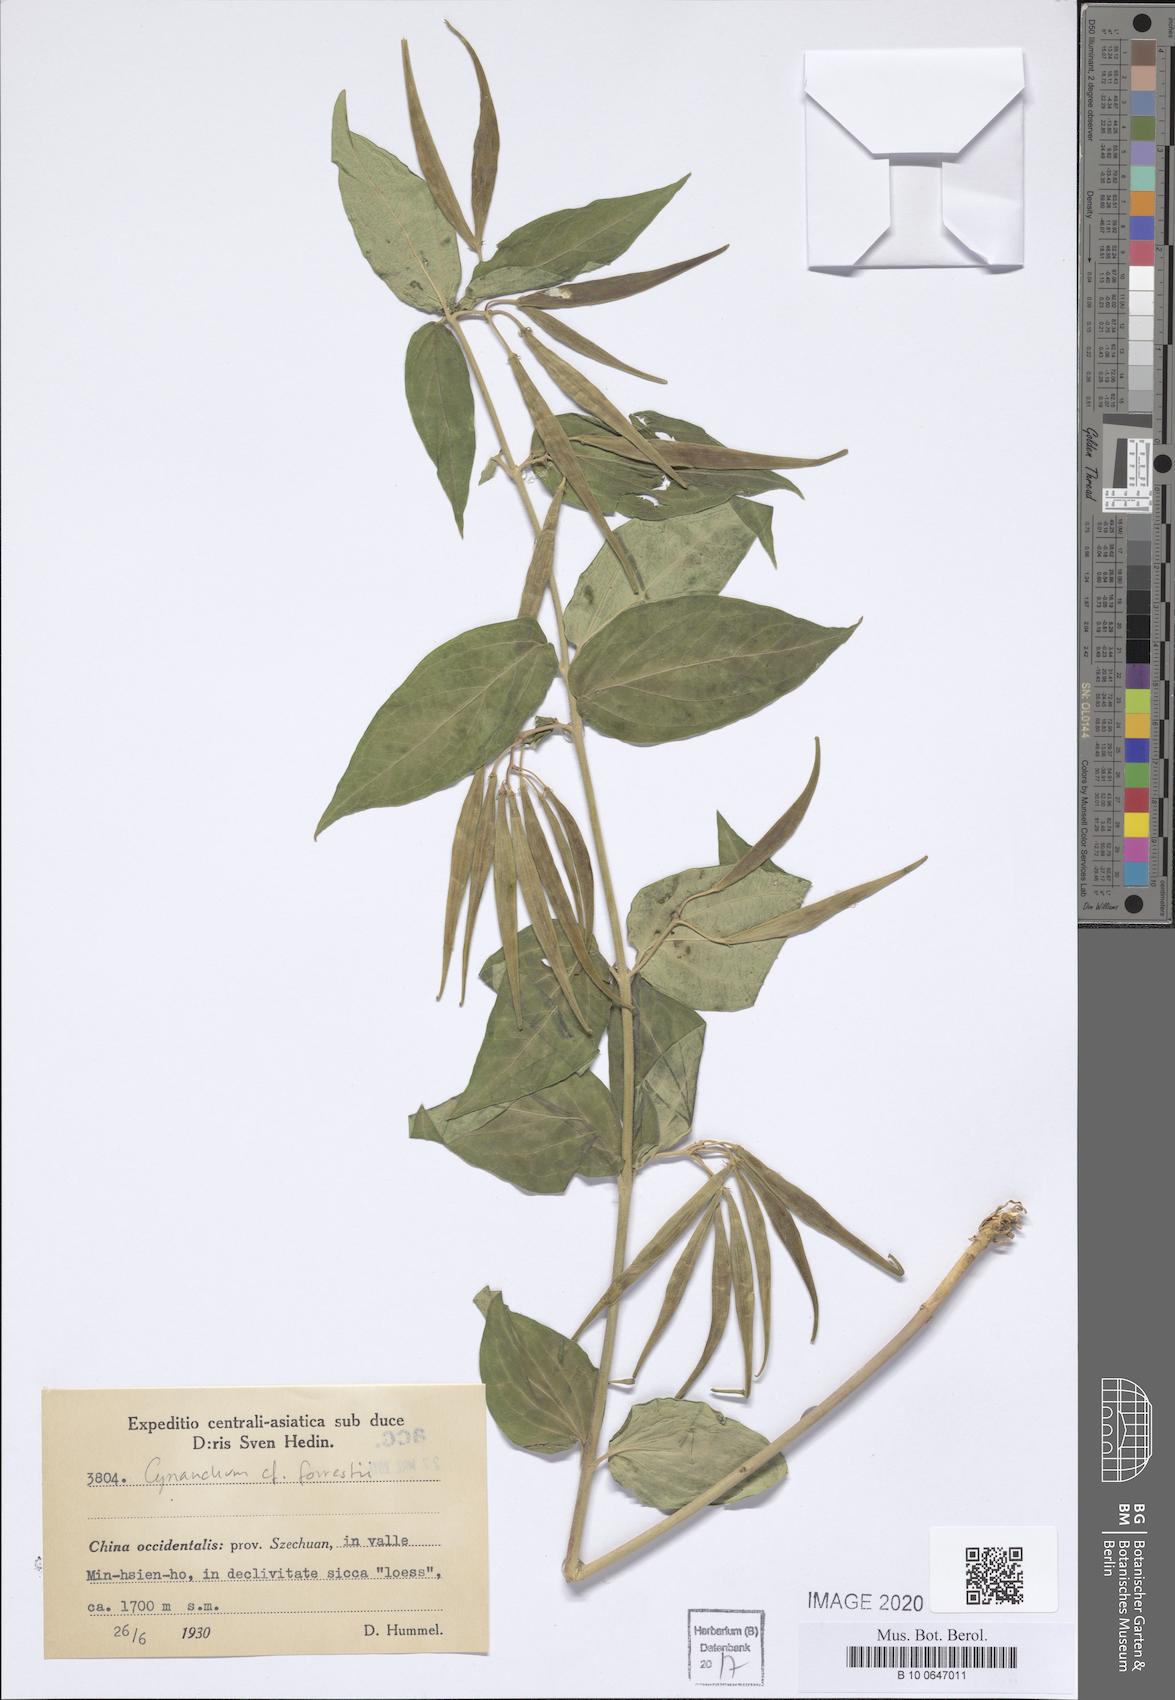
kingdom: Plantae
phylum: Tracheophyta
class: Magnoliopsida
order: Gentianales
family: Apocynaceae
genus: Vincetoxicum
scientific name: Vincetoxicum forrestii
